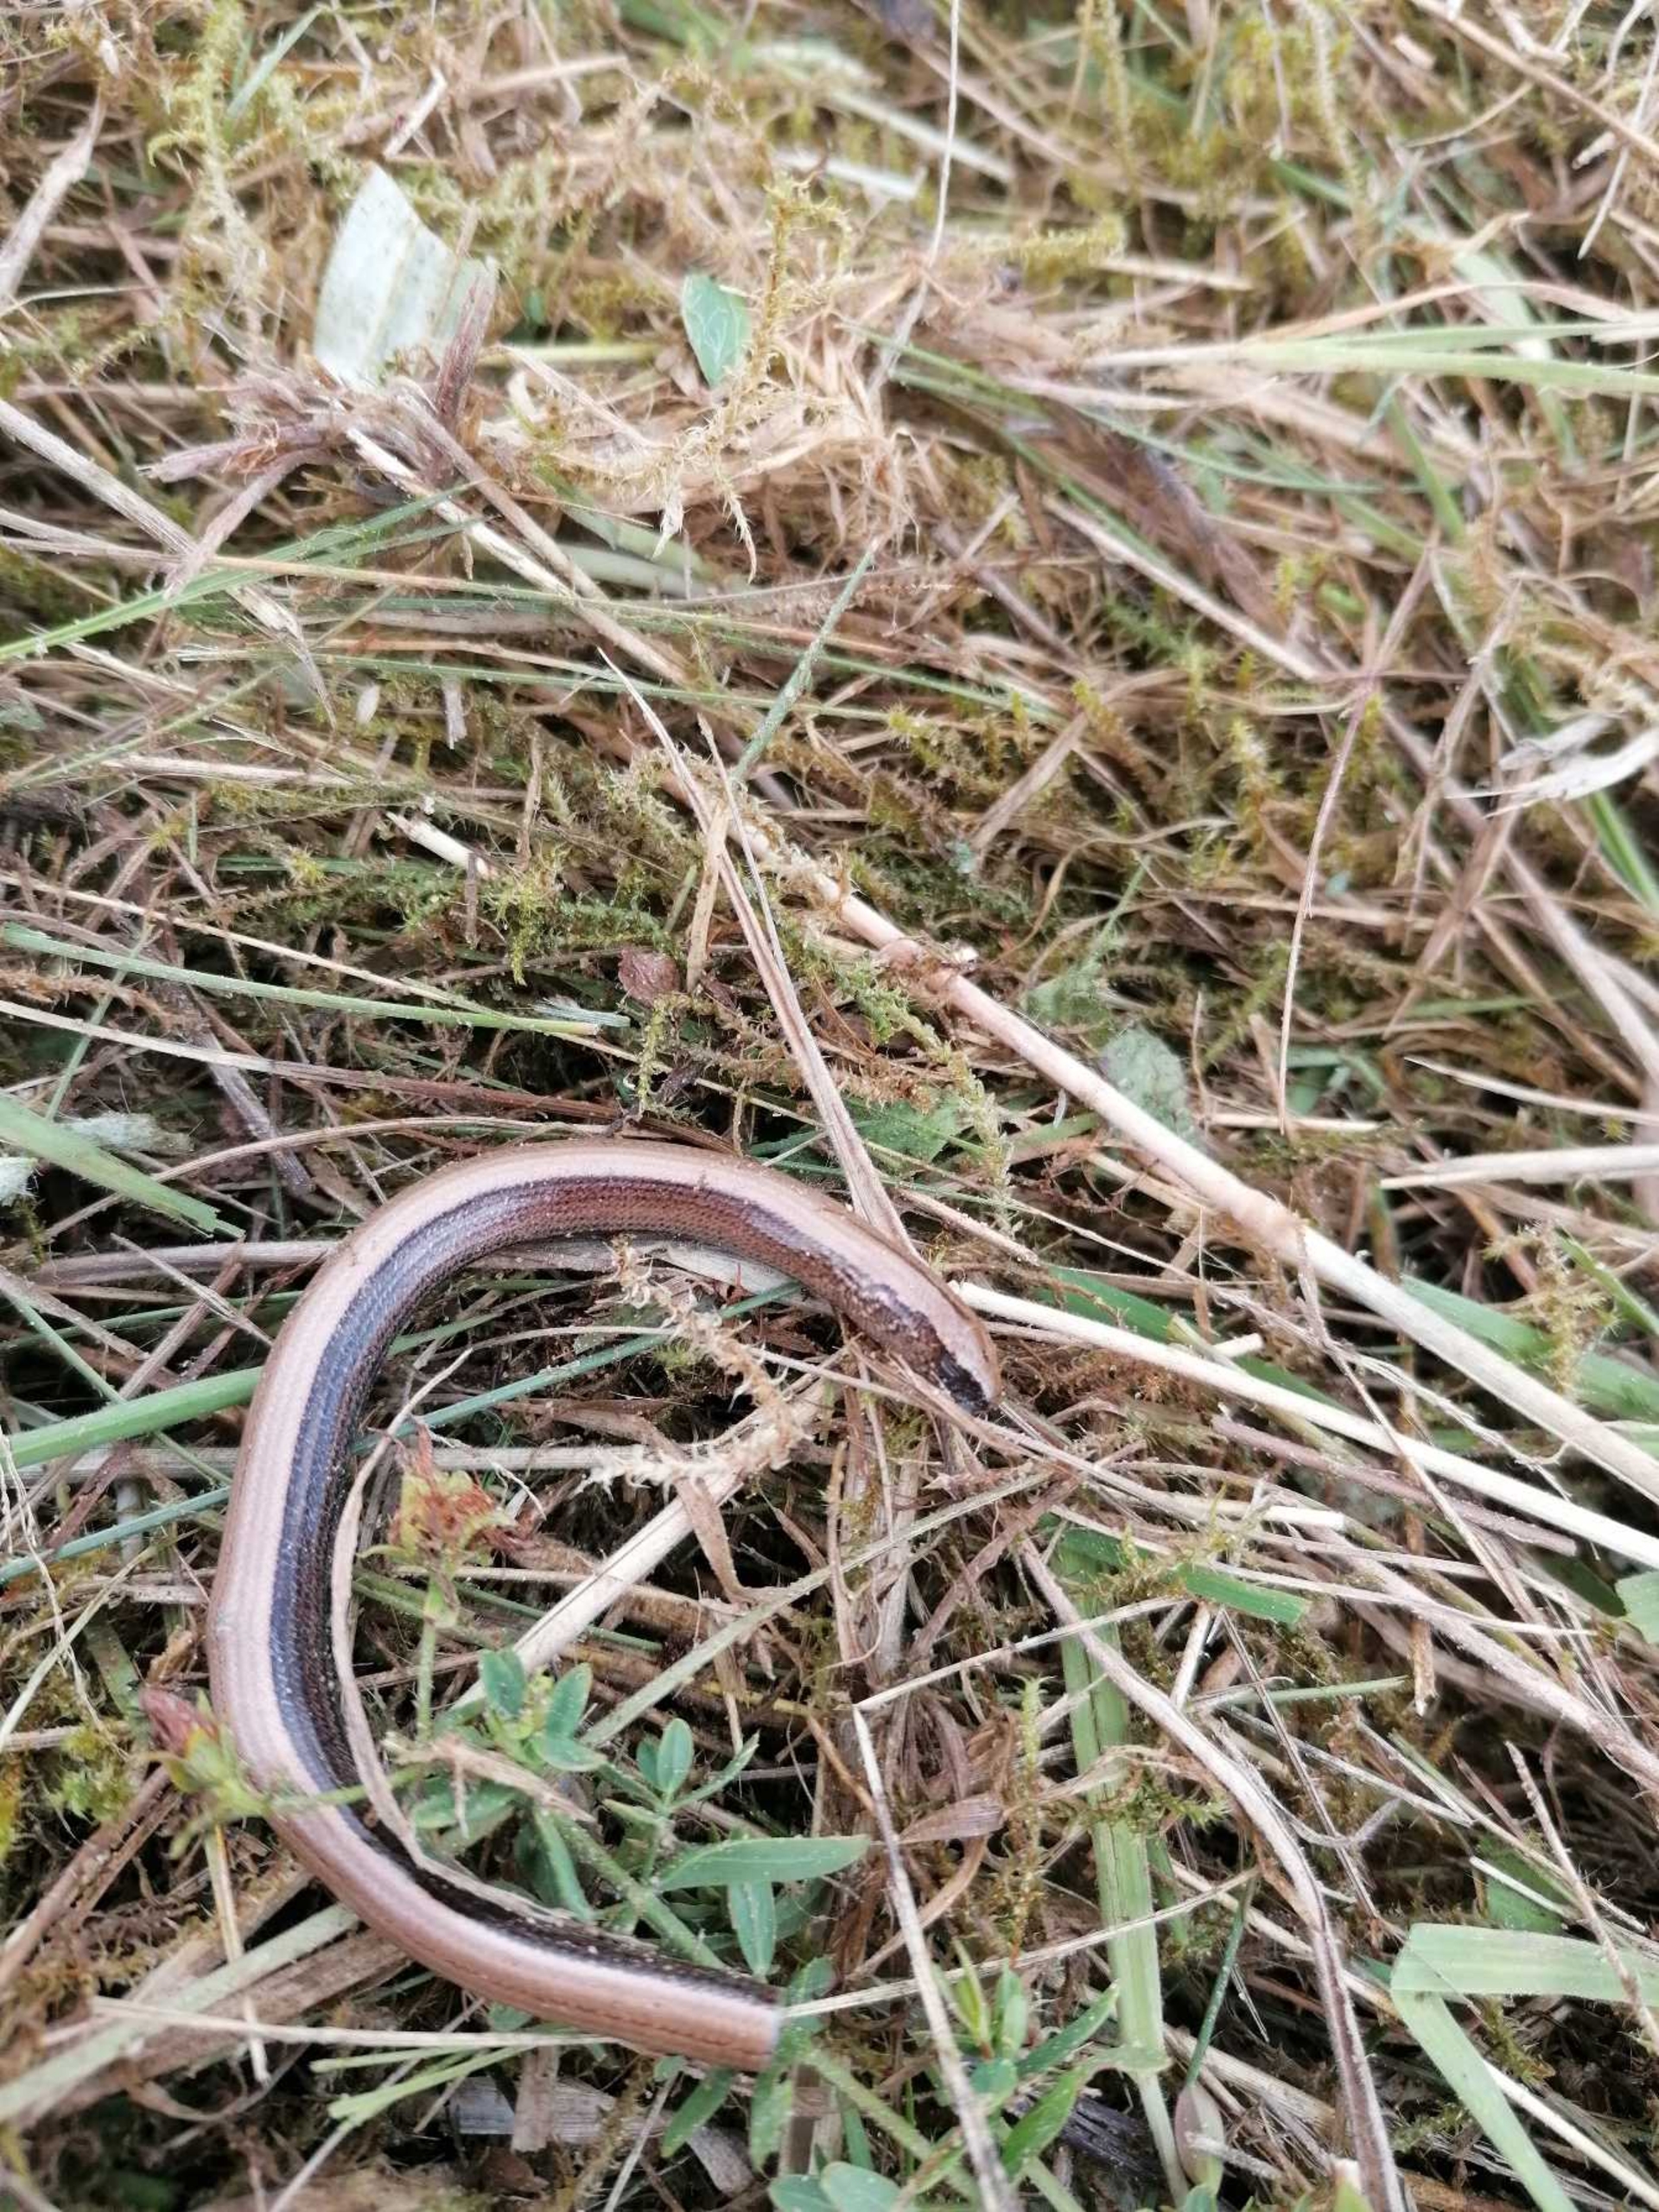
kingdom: Animalia
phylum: Chordata
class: Squamata
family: Anguidae
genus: Anguis
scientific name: Anguis fragilis
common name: Stålorm
